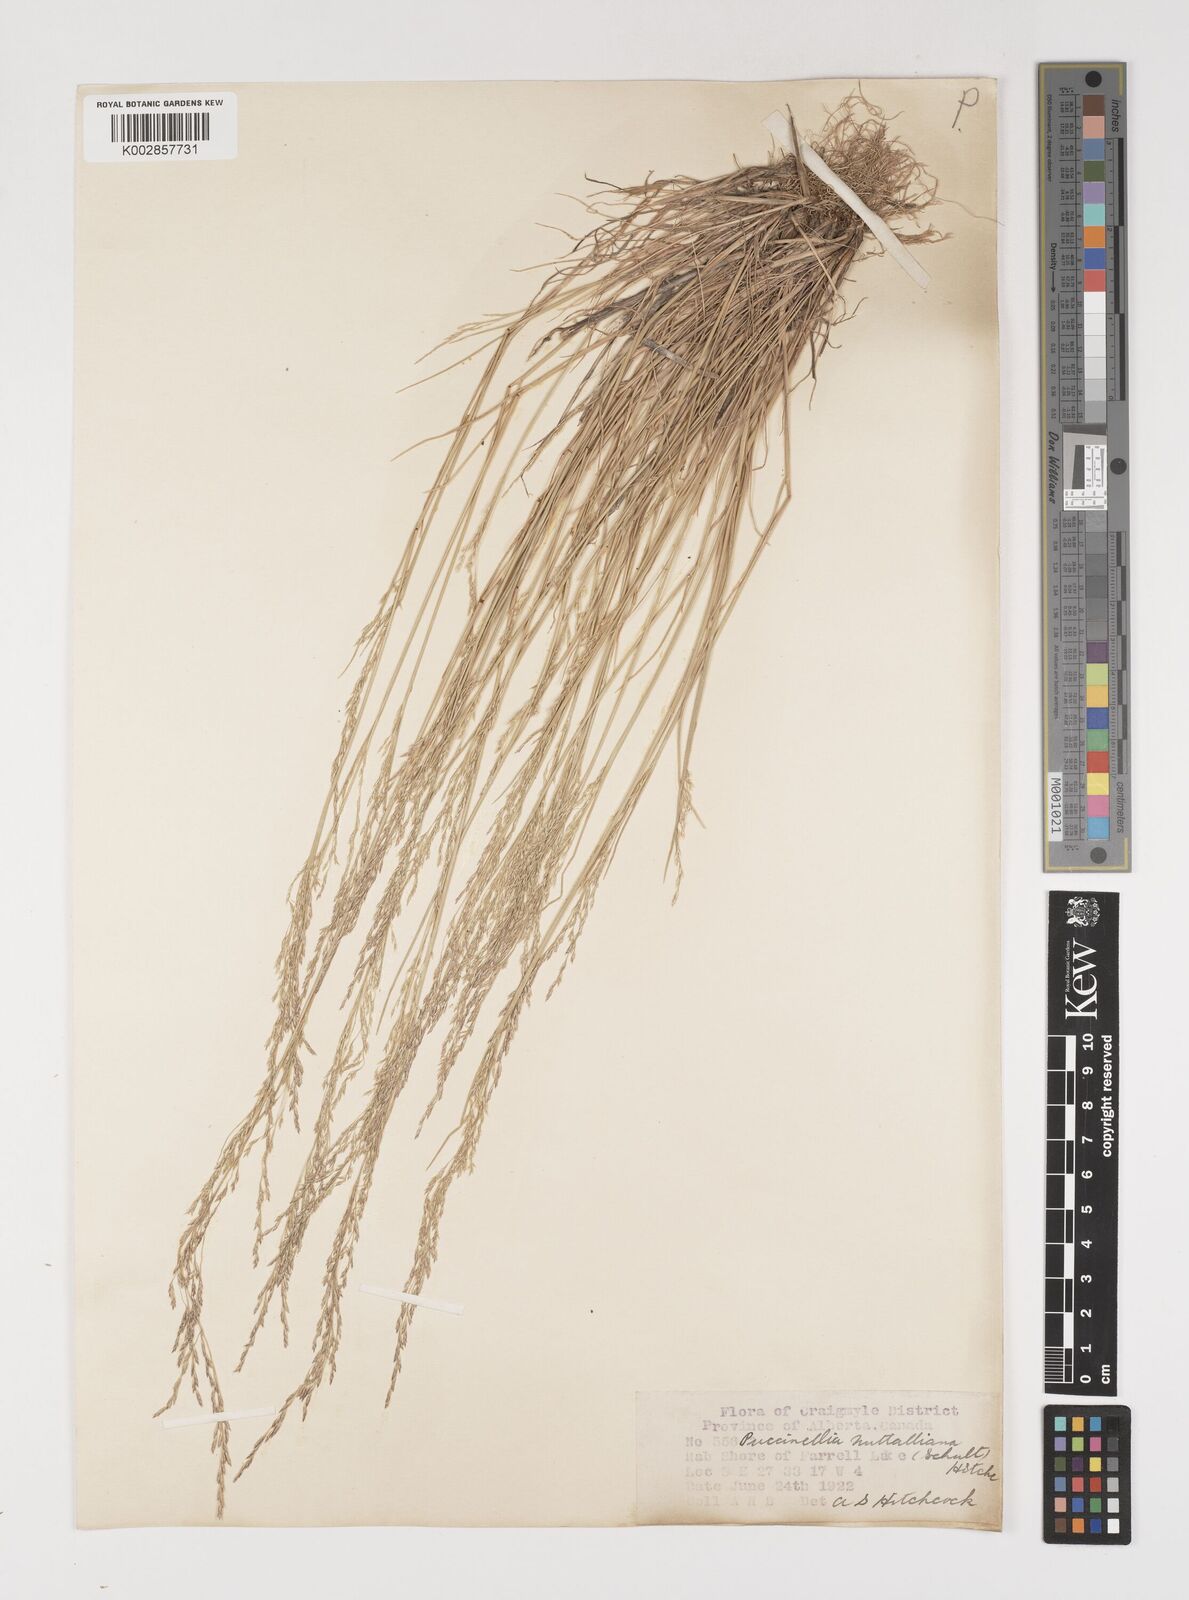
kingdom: Plantae
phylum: Tracheophyta
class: Liliopsida
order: Poales
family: Poaceae
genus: Puccinellia
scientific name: Puccinellia nuttalliana
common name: Nuttall's alkali grass
